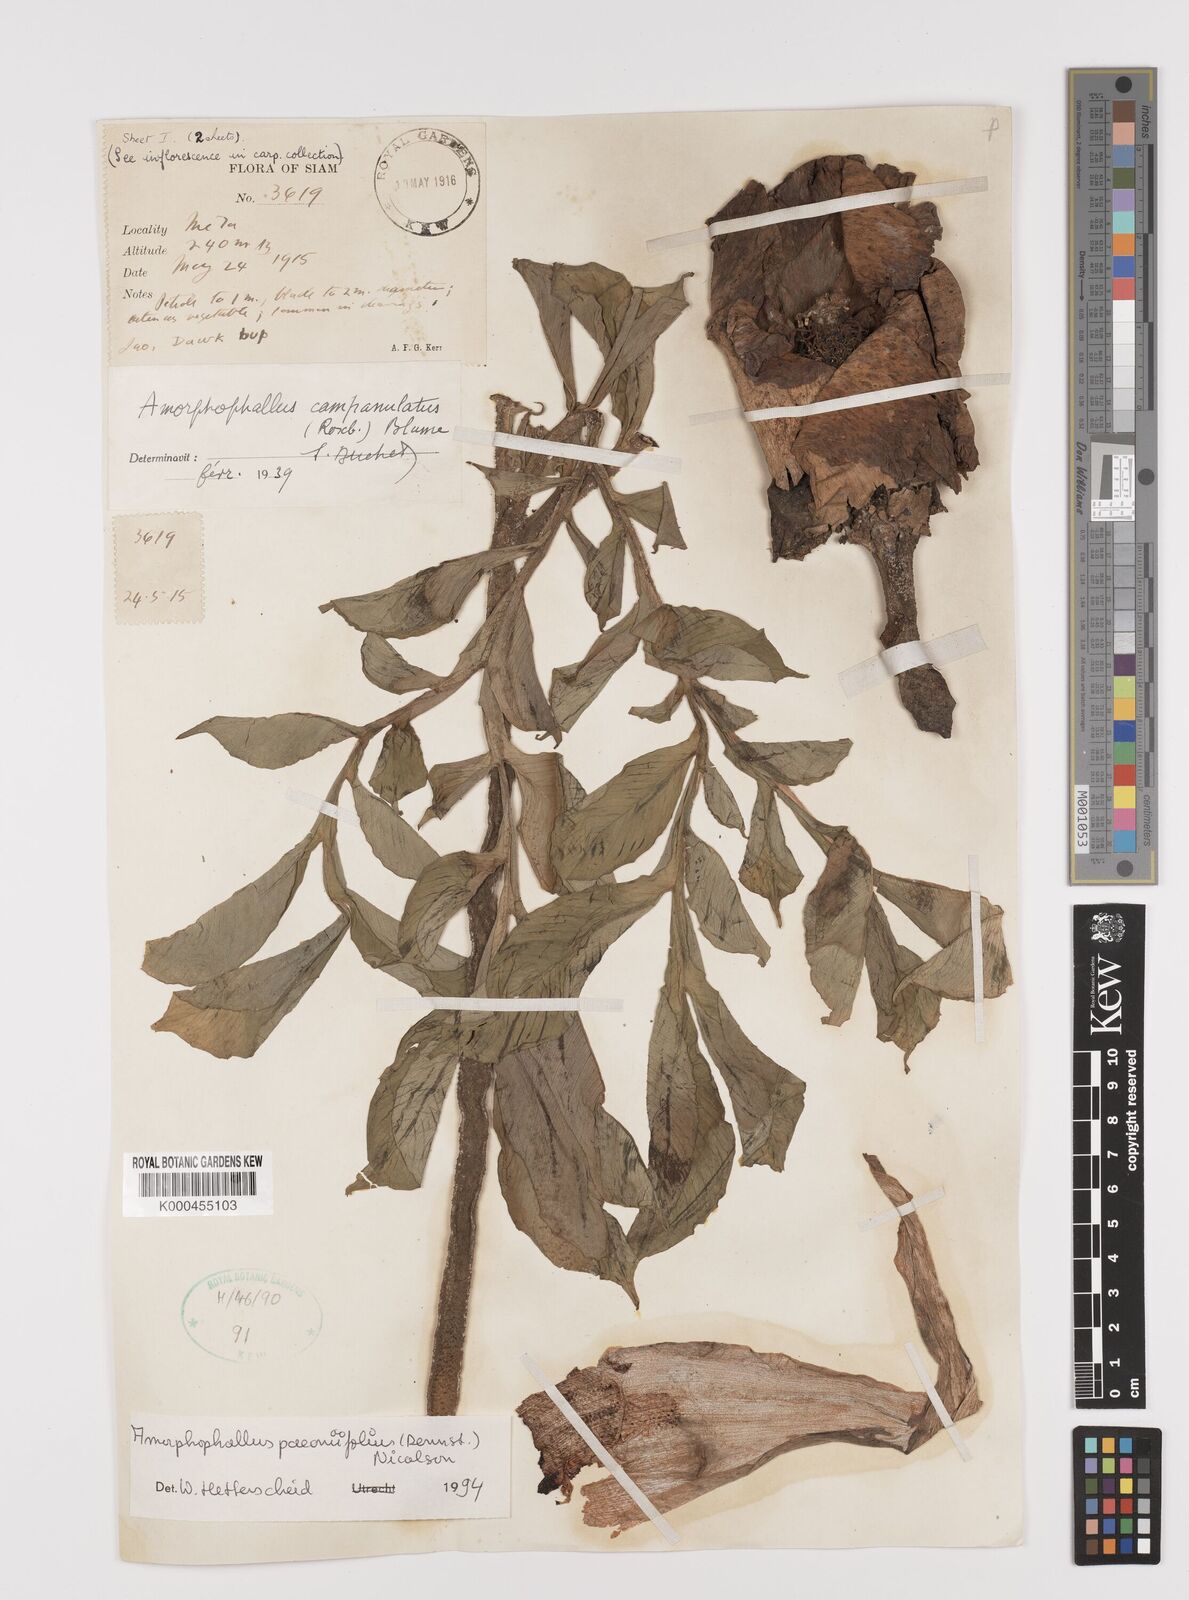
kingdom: Plantae
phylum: Tracheophyta
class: Liliopsida
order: Alismatales
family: Araceae
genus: Amorphophallus
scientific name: Amorphophallus paeoniifolius
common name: Telinga-potato
